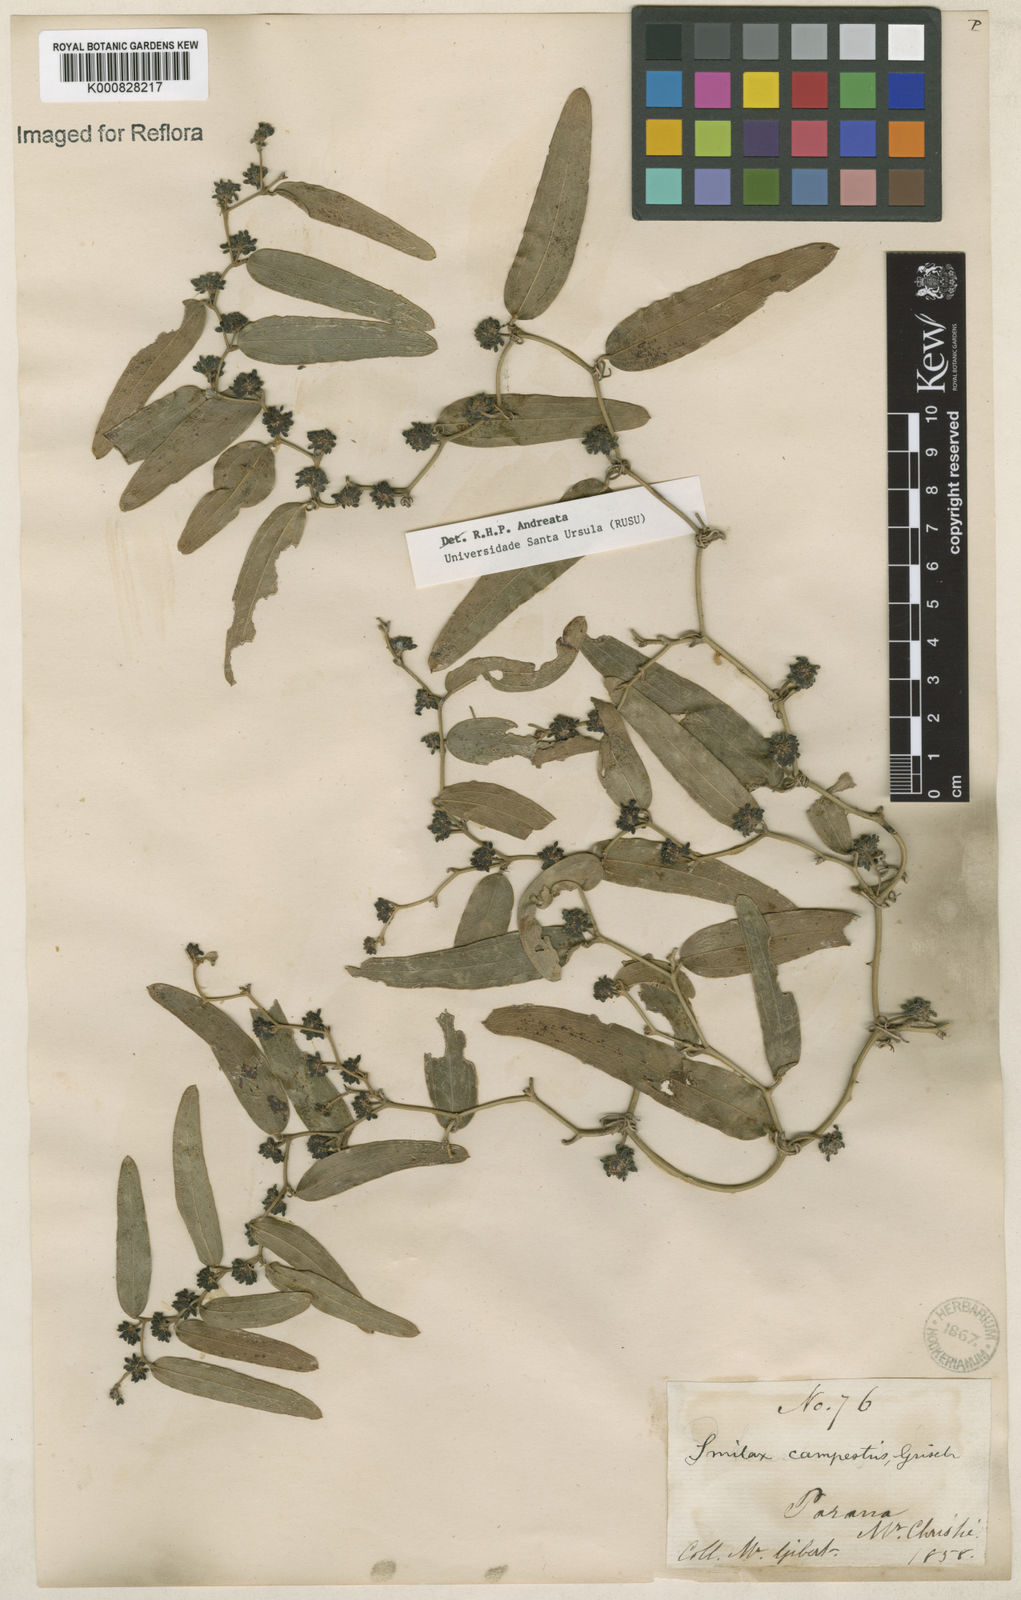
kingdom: Plantae
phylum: Tracheophyta
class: Liliopsida
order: Liliales
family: Smilacaceae
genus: Smilax
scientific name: Smilax campestris
